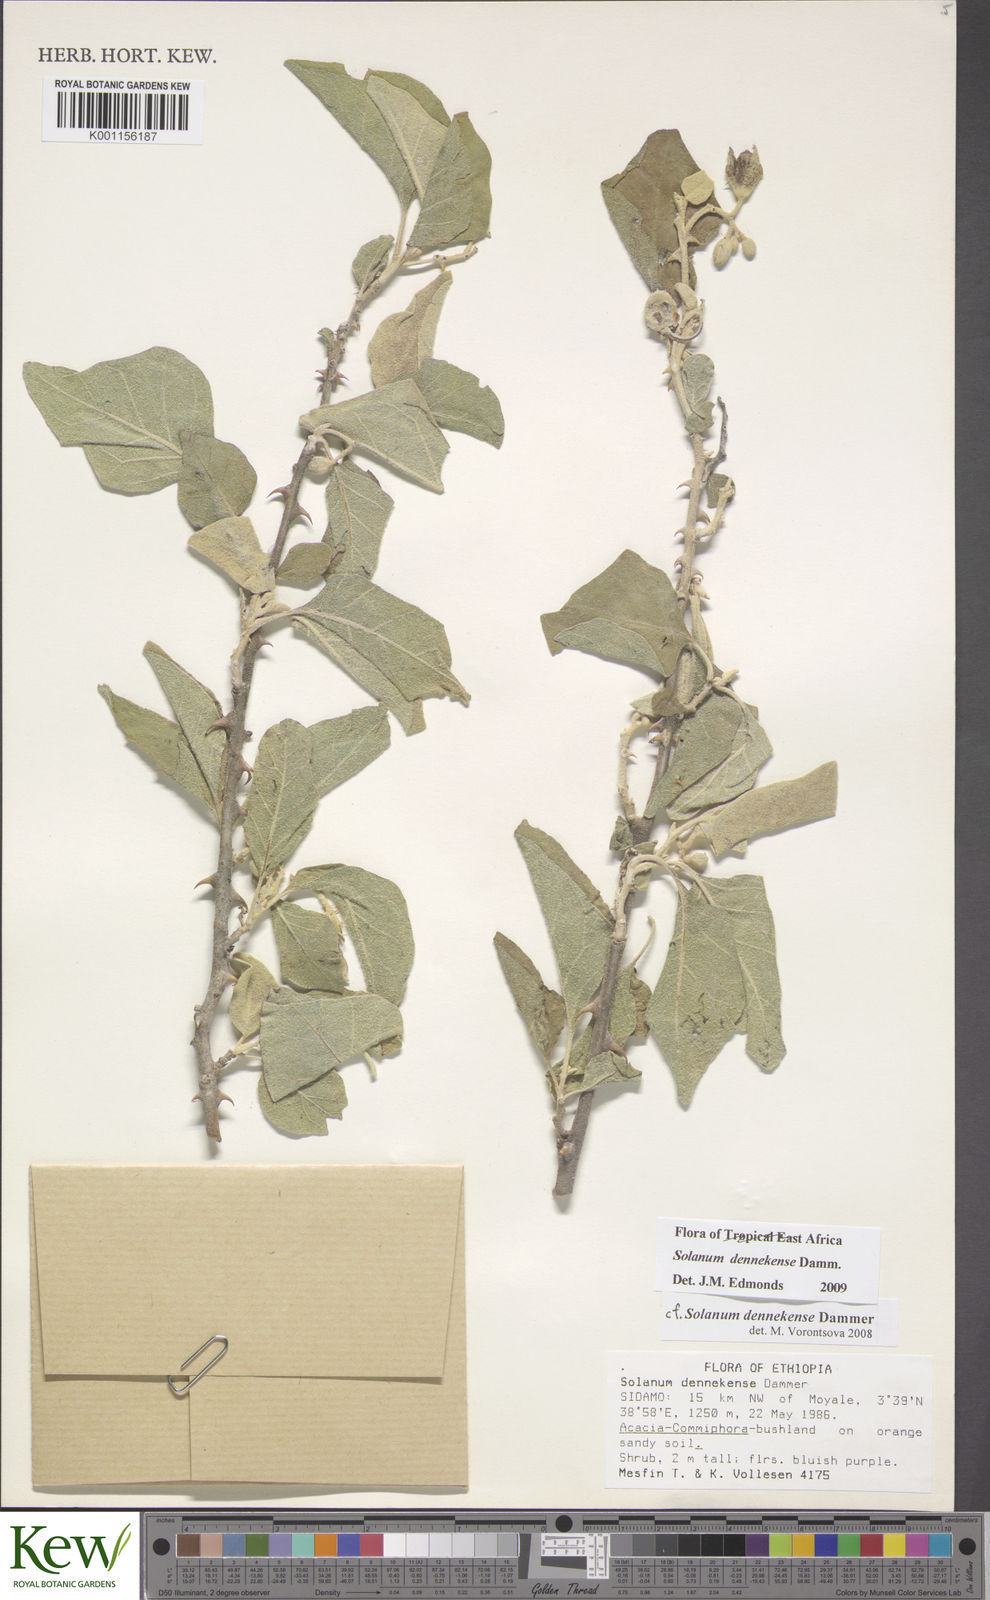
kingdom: Plantae
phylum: Tracheophyta
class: Magnoliopsida
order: Solanales
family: Solanaceae
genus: Solanum
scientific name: Solanum dennekense
